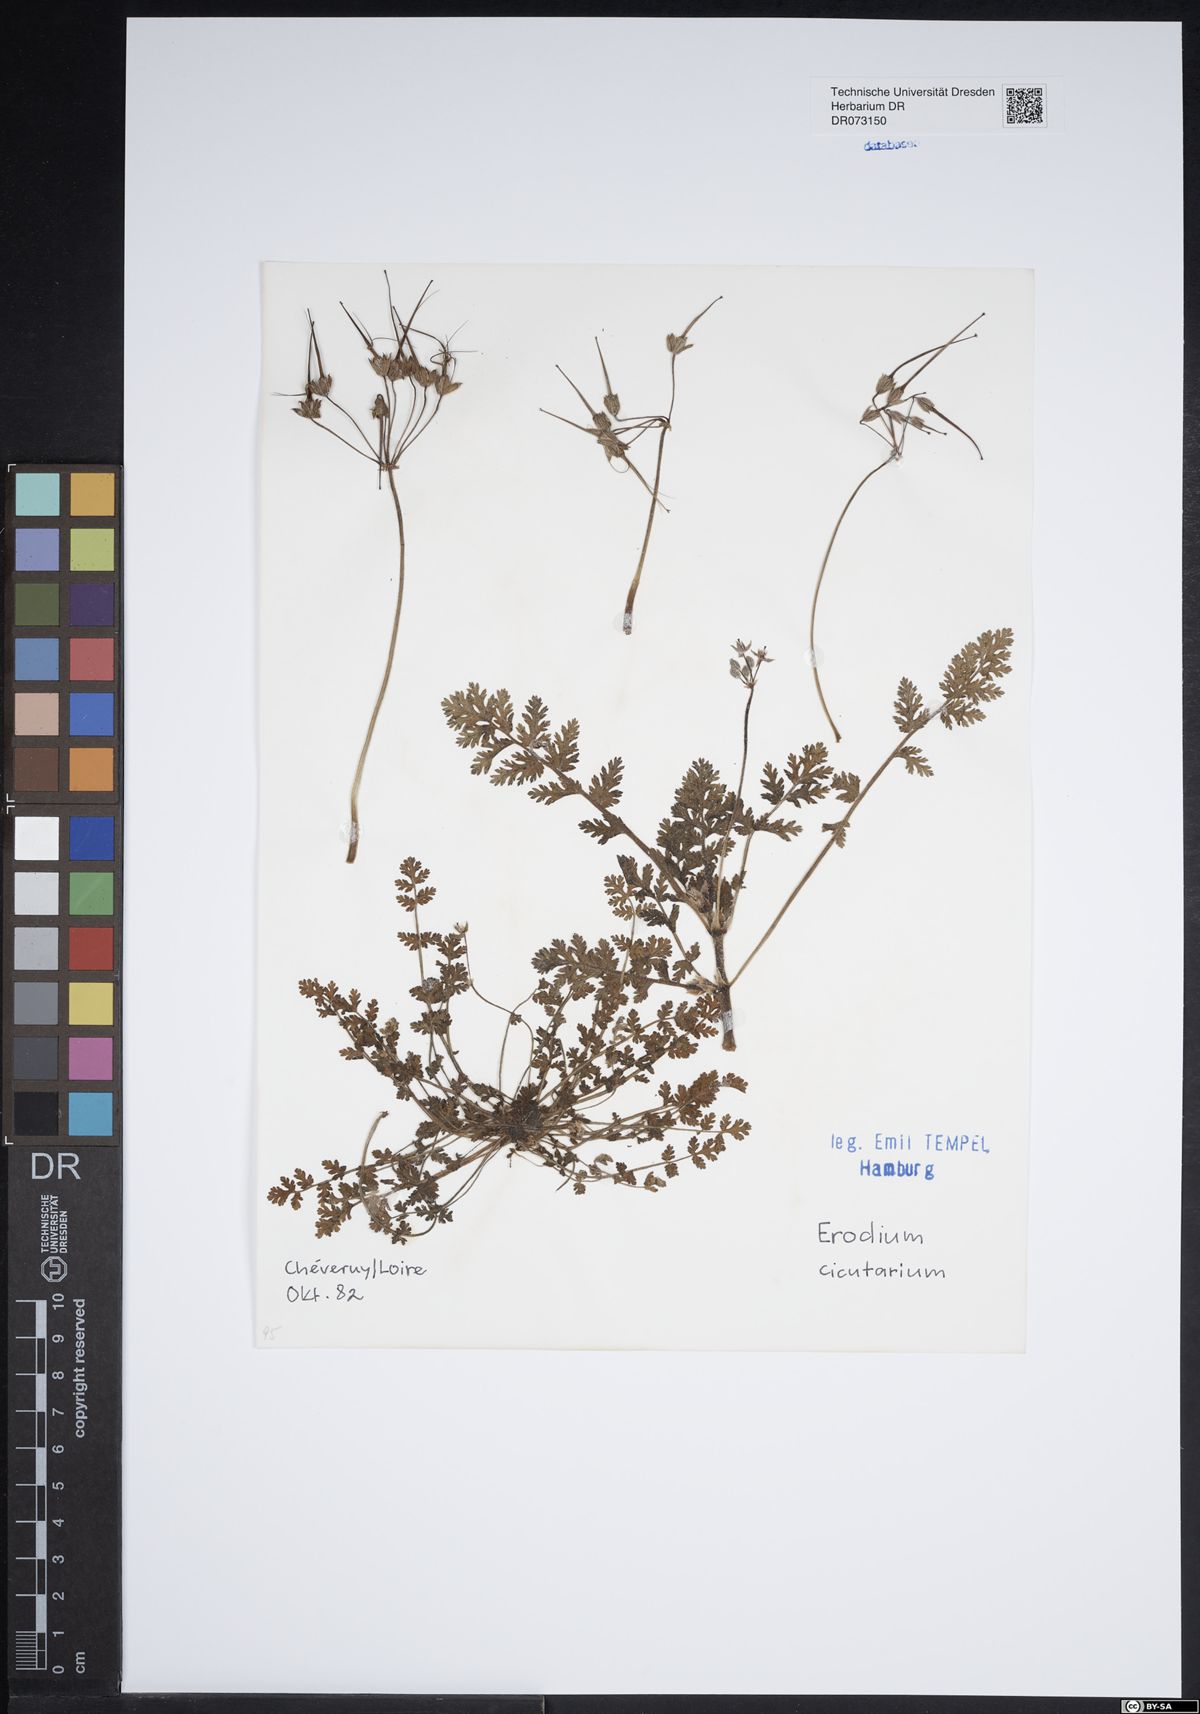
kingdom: Plantae
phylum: Tracheophyta
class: Magnoliopsida
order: Geraniales
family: Geraniaceae
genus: Erodium
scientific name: Erodium cicutarium
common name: Common stork's-bill
